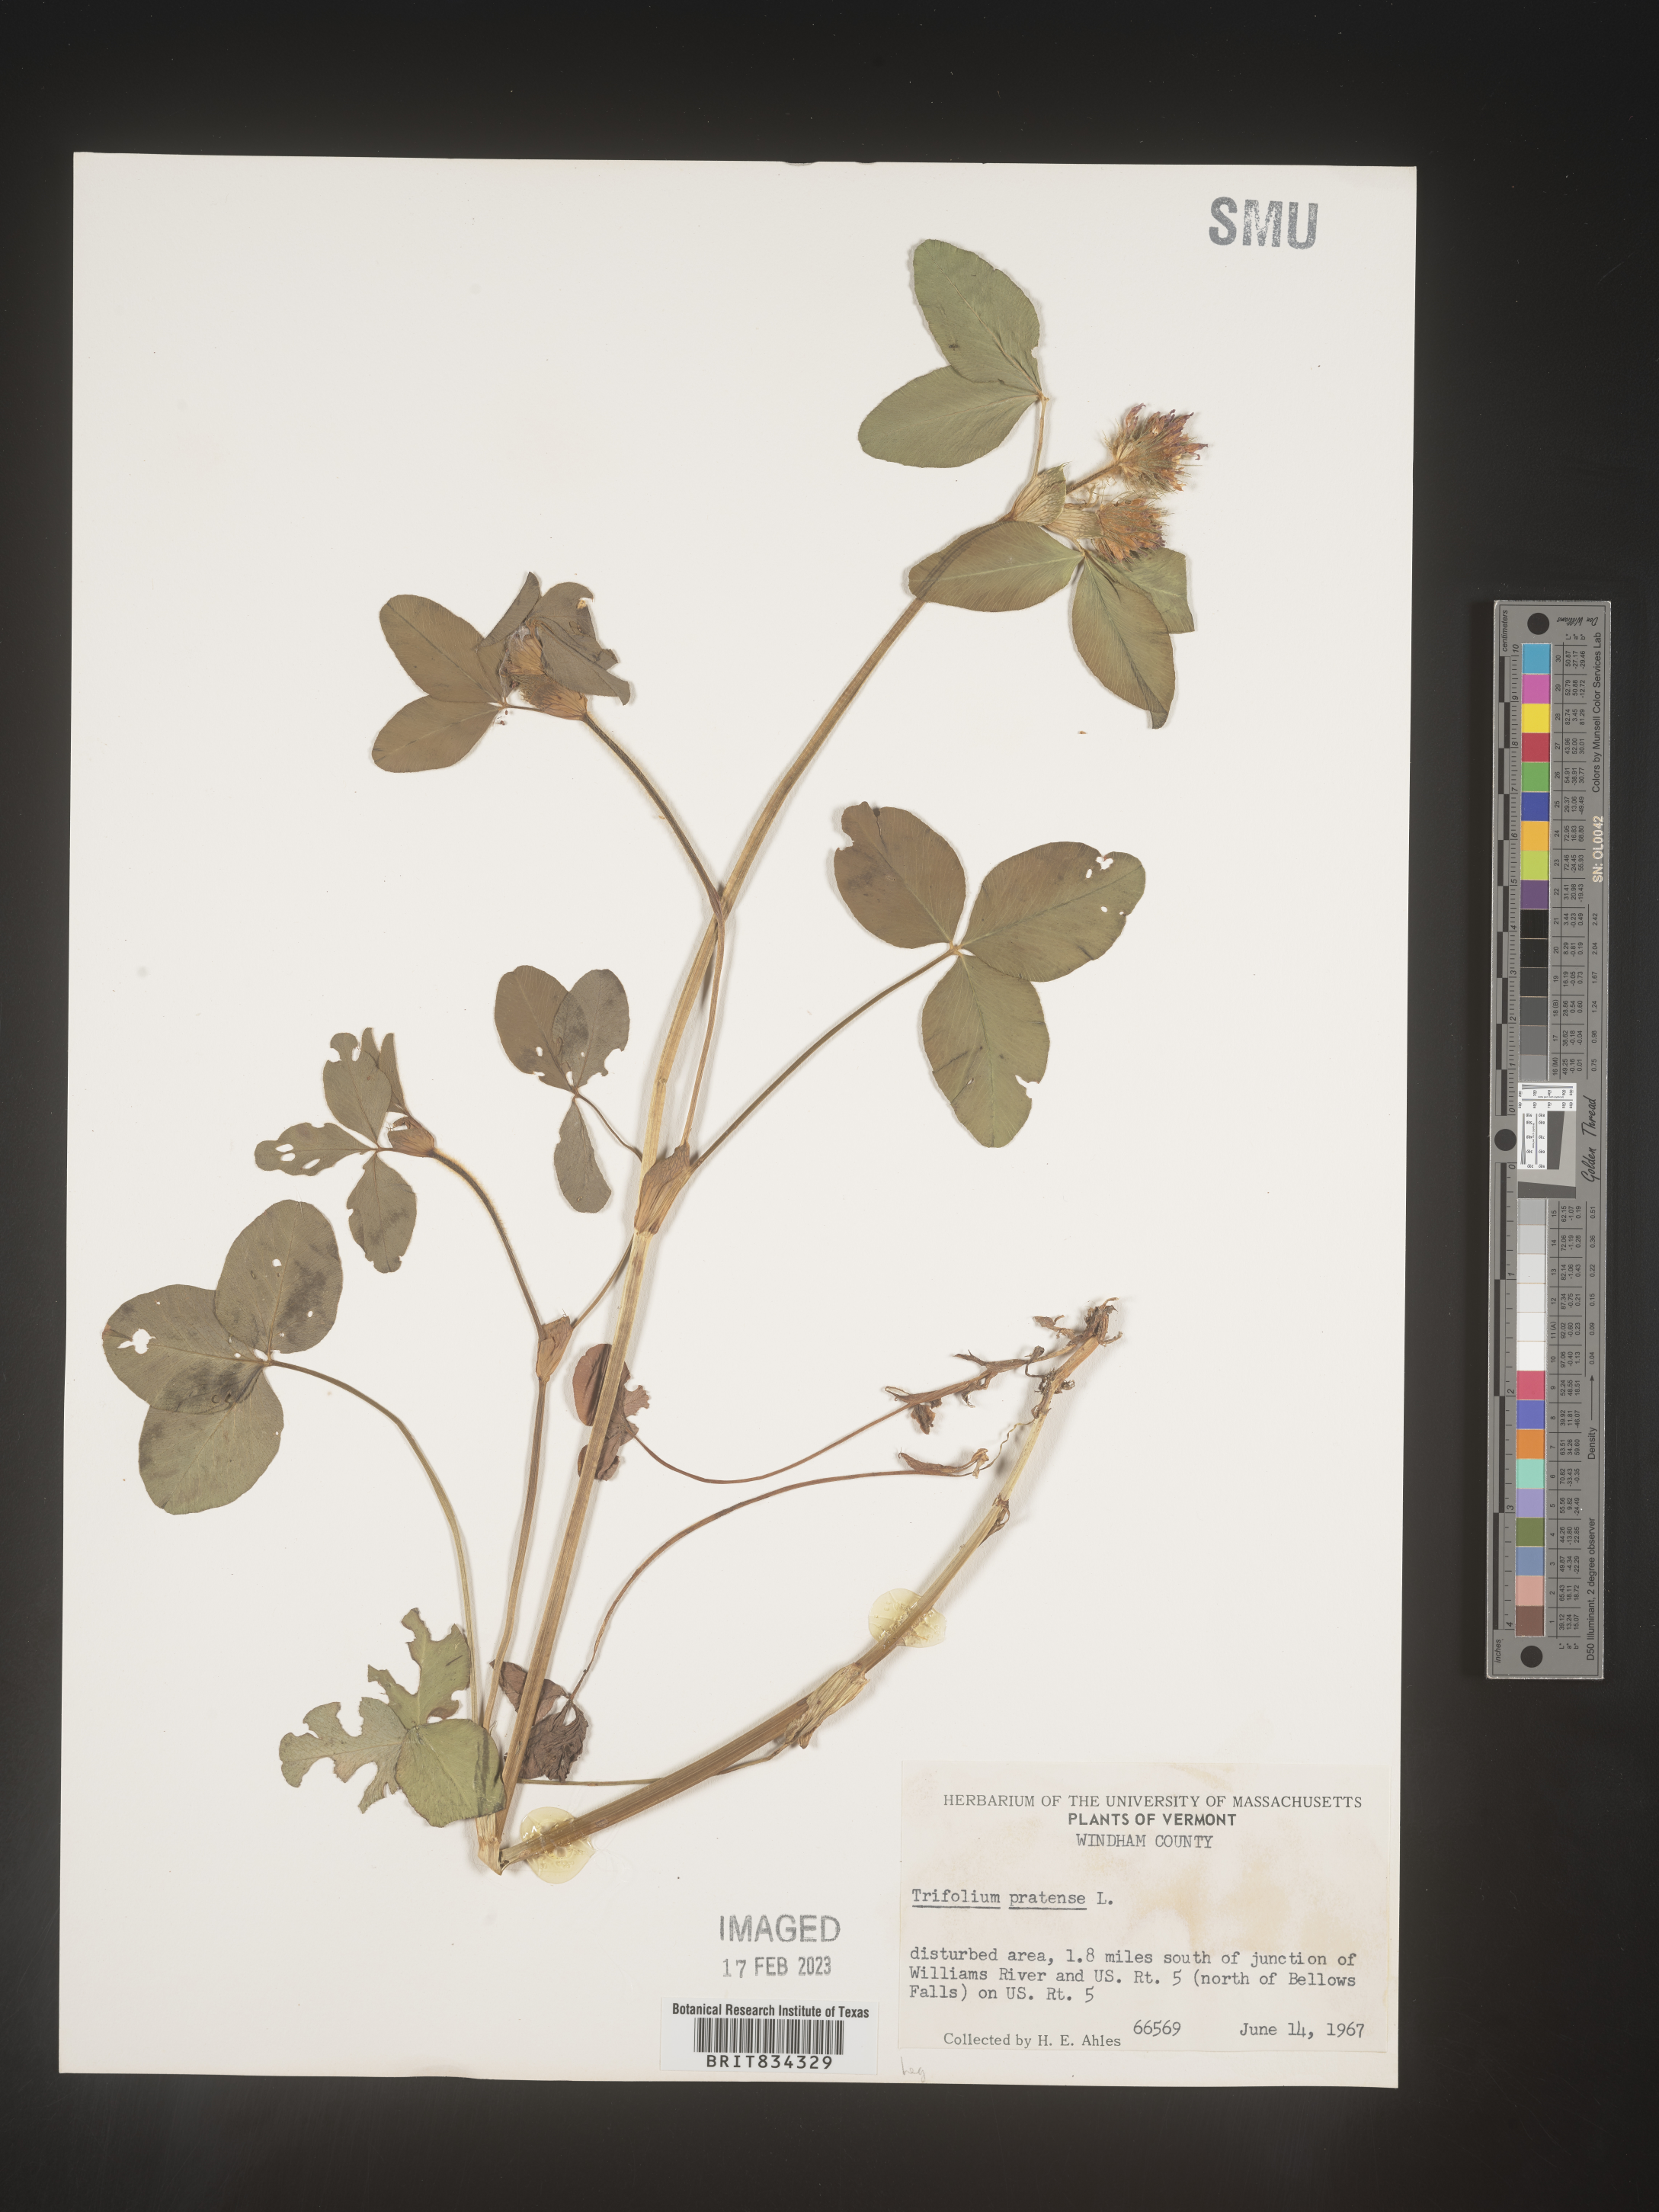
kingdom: Plantae
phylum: Tracheophyta
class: Magnoliopsida
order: Fabales
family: Fabaceae
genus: Trifolium
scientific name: Trifolium pratense
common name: Red clover
